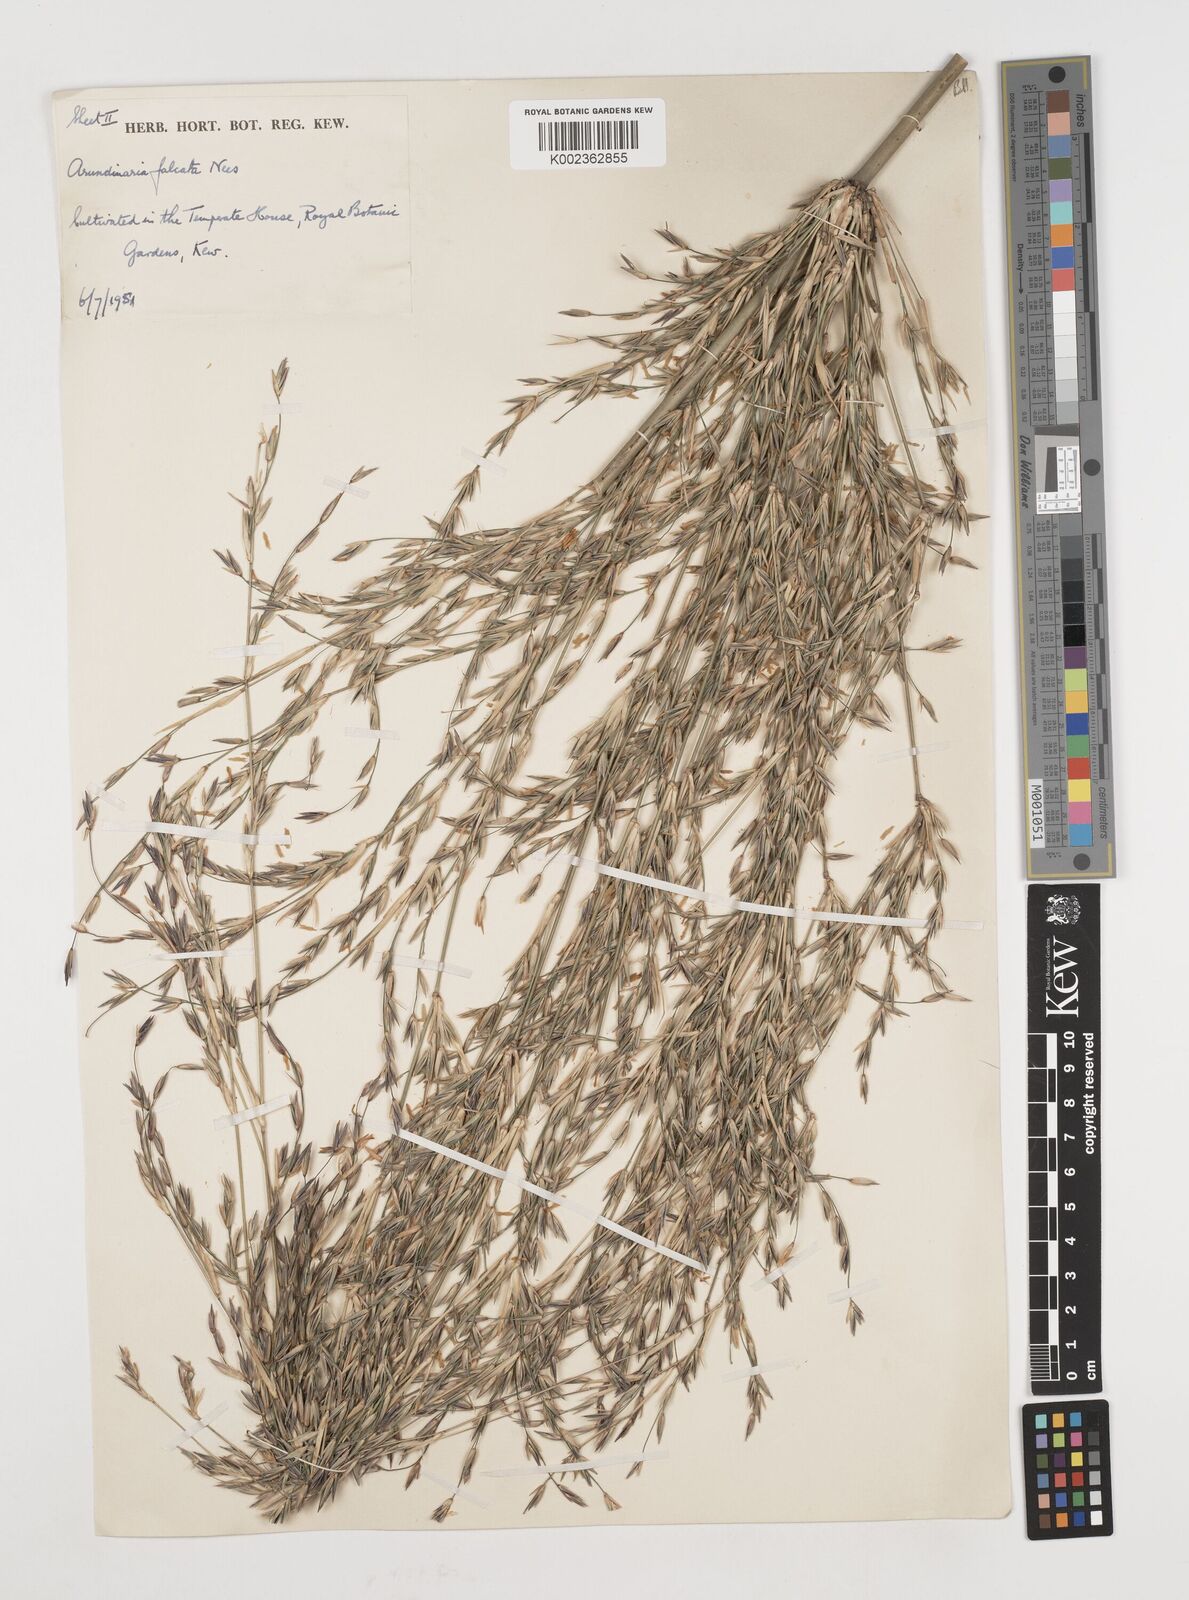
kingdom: Plantae
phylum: Tracheophyta
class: Liliopsida
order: Poales
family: Poaceae
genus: Drepanostachyum
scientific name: Drepanostachyum falcatum
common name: Himalayan bamboo
